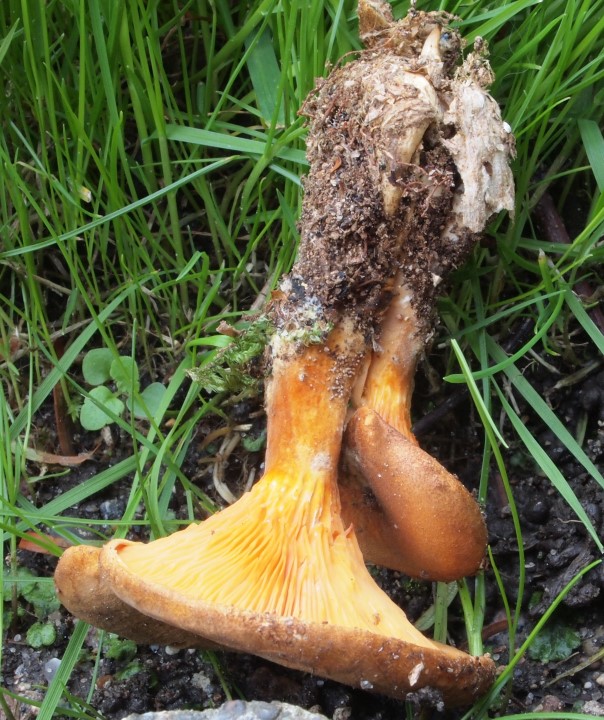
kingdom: Fungi
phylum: Basidiomycota
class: Agaricomycetes
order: Boletales
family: Hygrophoropsidaceae
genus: Hygrophoropsis
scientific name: Hygrophoropsis rufa
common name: brunfiltet orangekantarel
